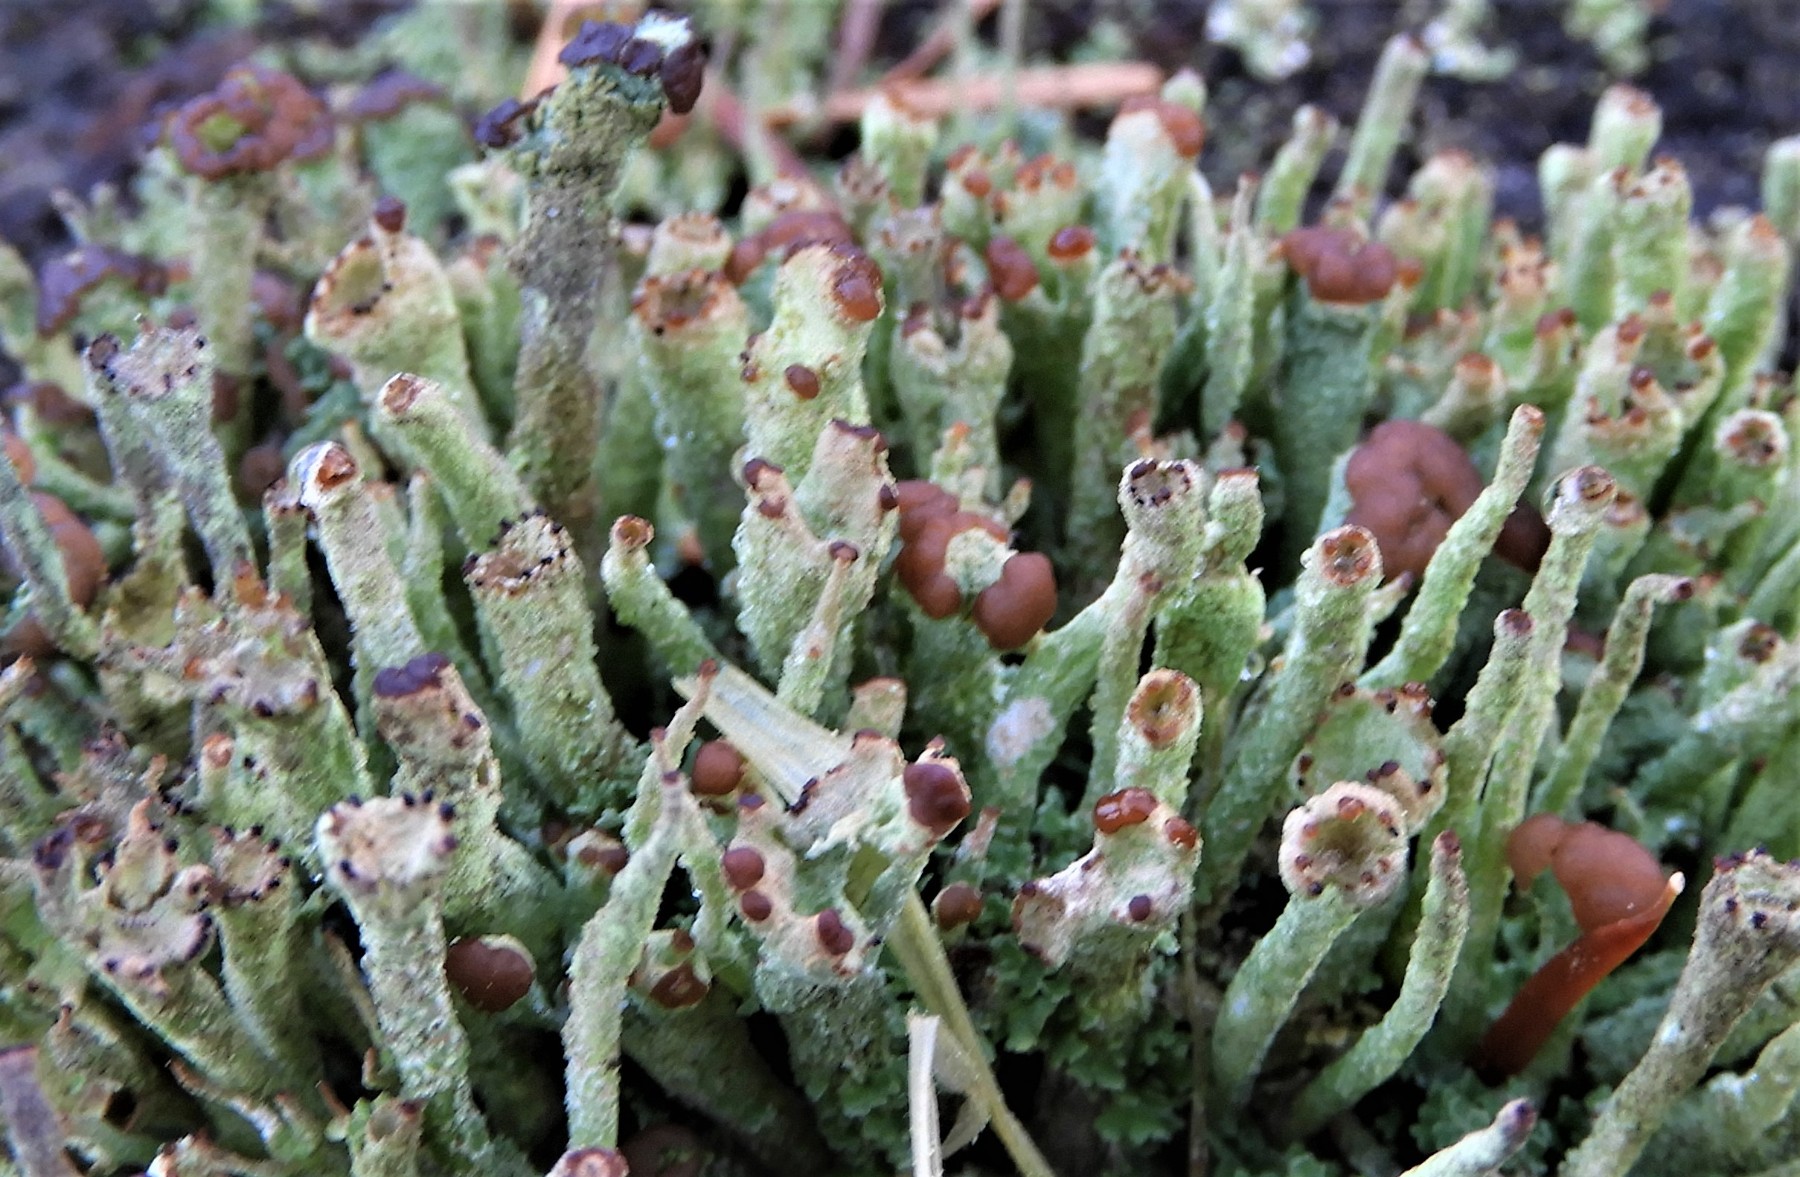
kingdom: Fungi
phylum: Ascomycota
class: Lecanoromycetes
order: Lecanorales
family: Cladoniaceae
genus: Cladonia
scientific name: Cladonia ramulosa
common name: kliddet bægerlav
